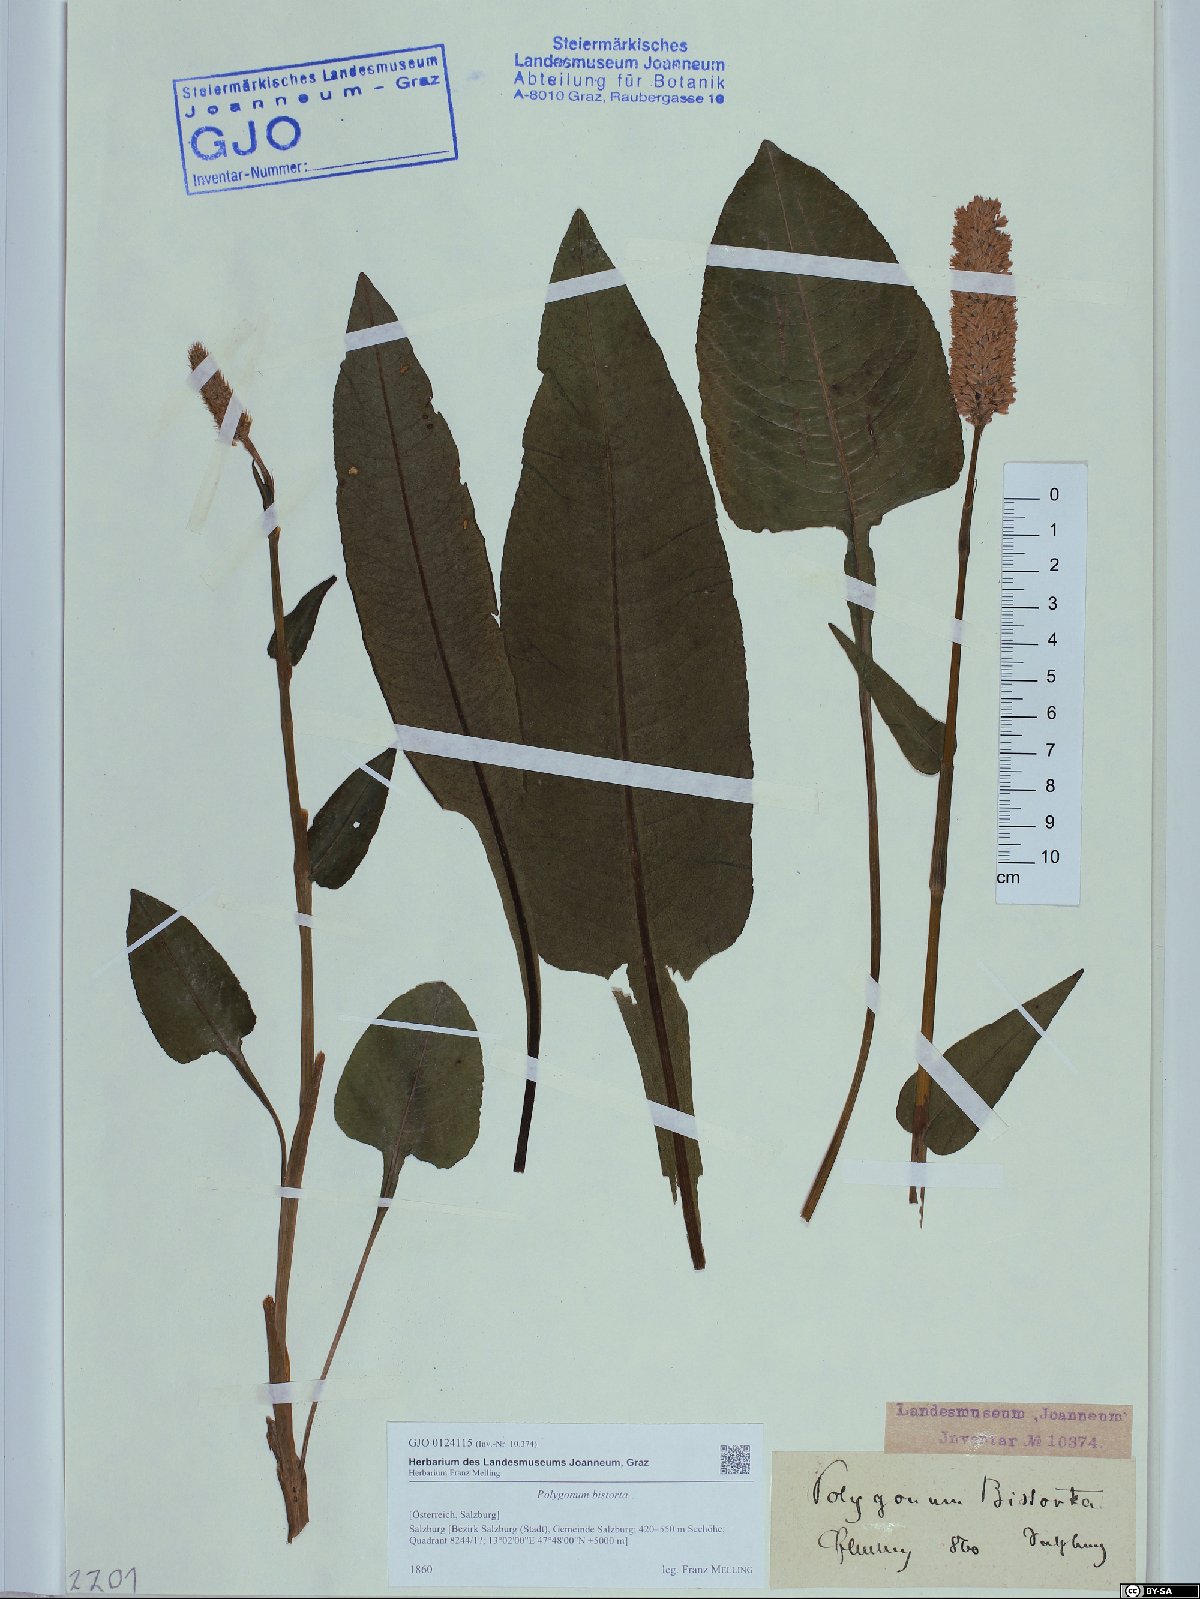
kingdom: Plantae
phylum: Tracheophyta
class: Magnoliopsida
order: Caryophyllales
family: Polygonaceae
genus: Bistorta
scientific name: Bistorta officinalis
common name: Common bistort
